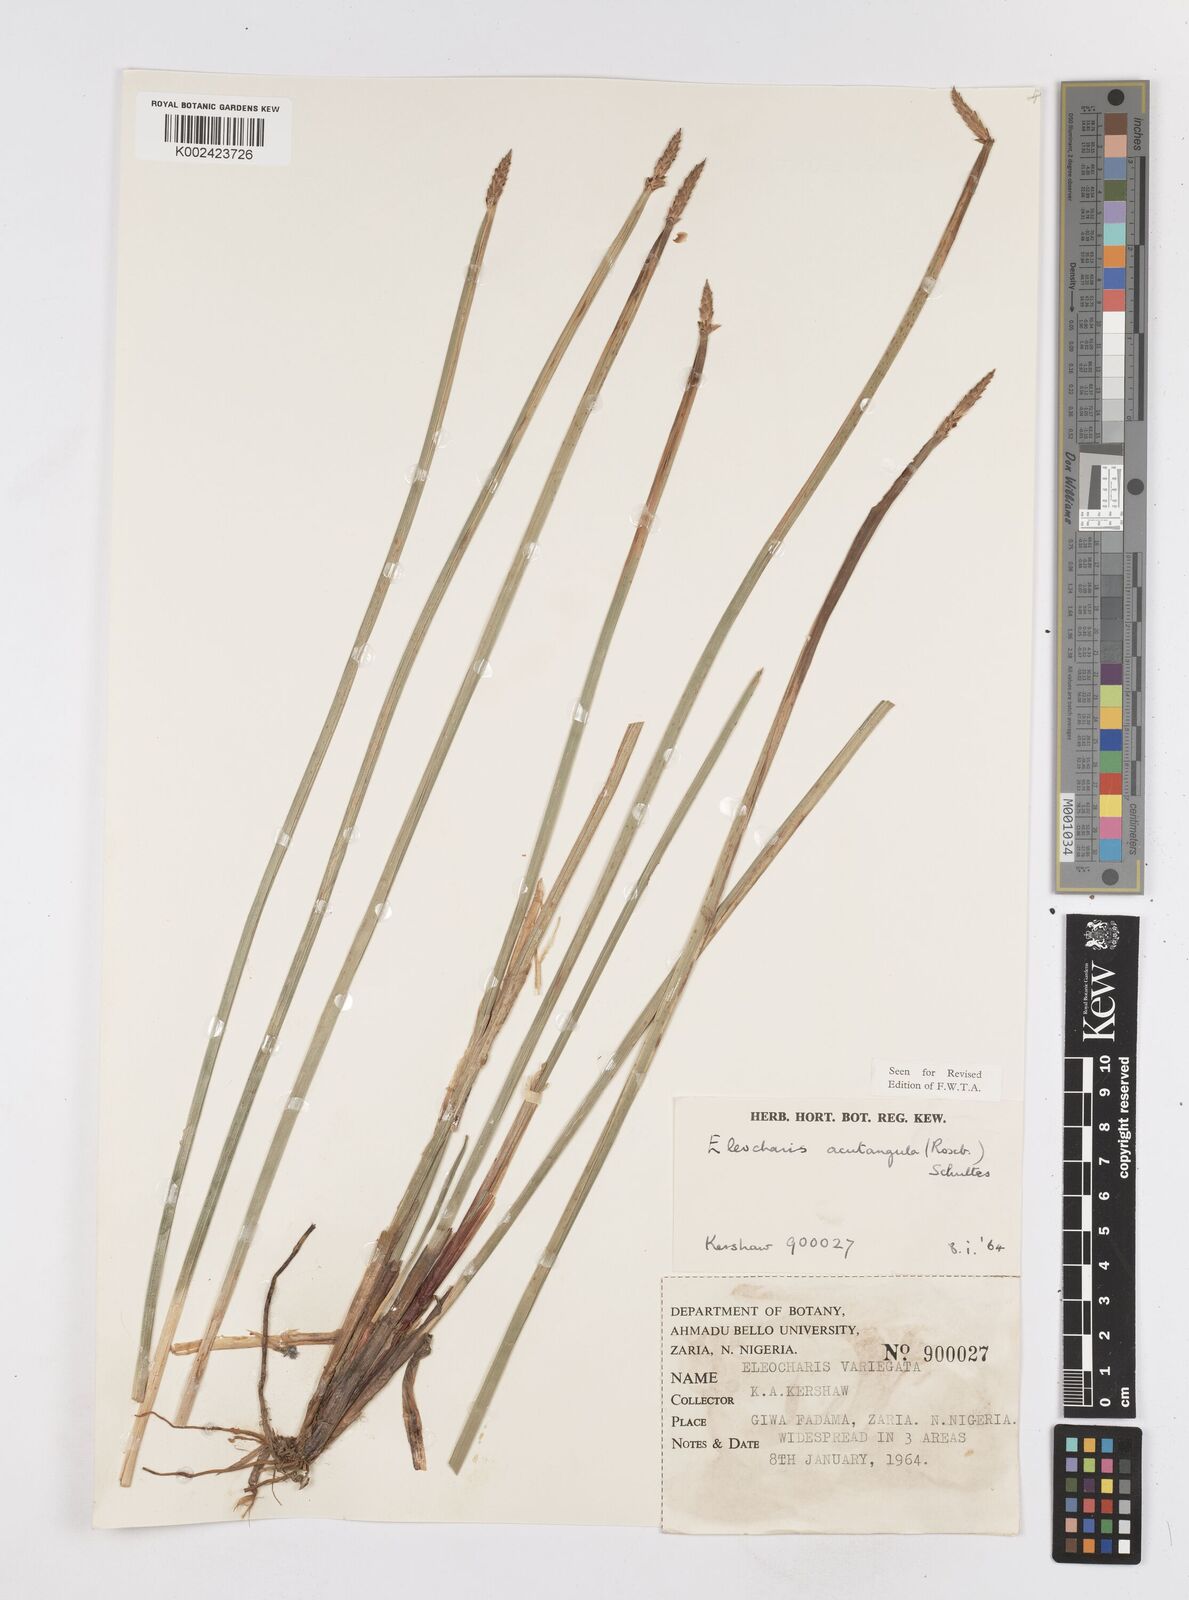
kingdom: Plantae
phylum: Tracheophyta
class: Liliopsida
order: Poales
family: Cyperaceae
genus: Eleocharis
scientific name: Eleocharis acutangula
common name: Acute spikerush
